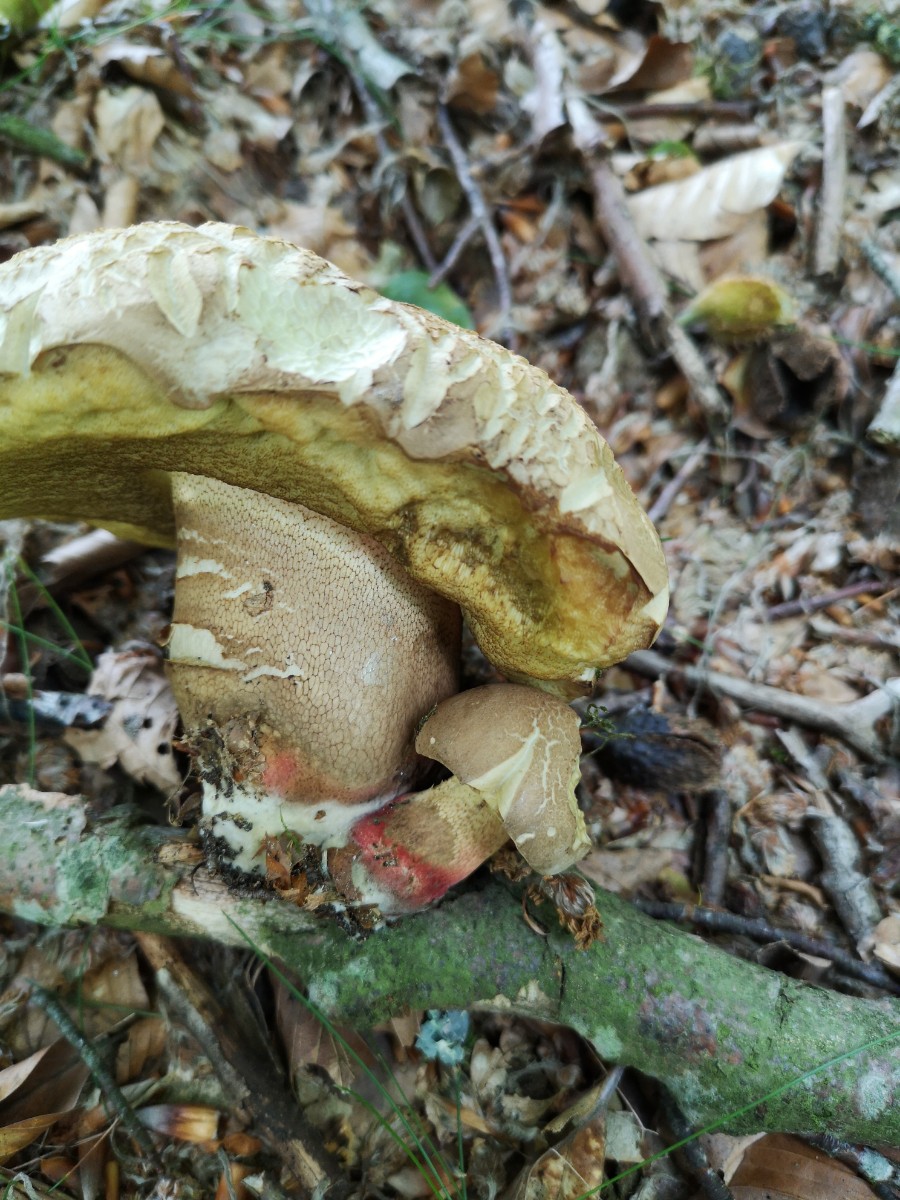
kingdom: Fungi
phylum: Basidiomycota
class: Agaricomycetes
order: Boletales
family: Boletaceae
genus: Caloboletus
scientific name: Caloboletus calopus
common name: skønfodet rørhat
